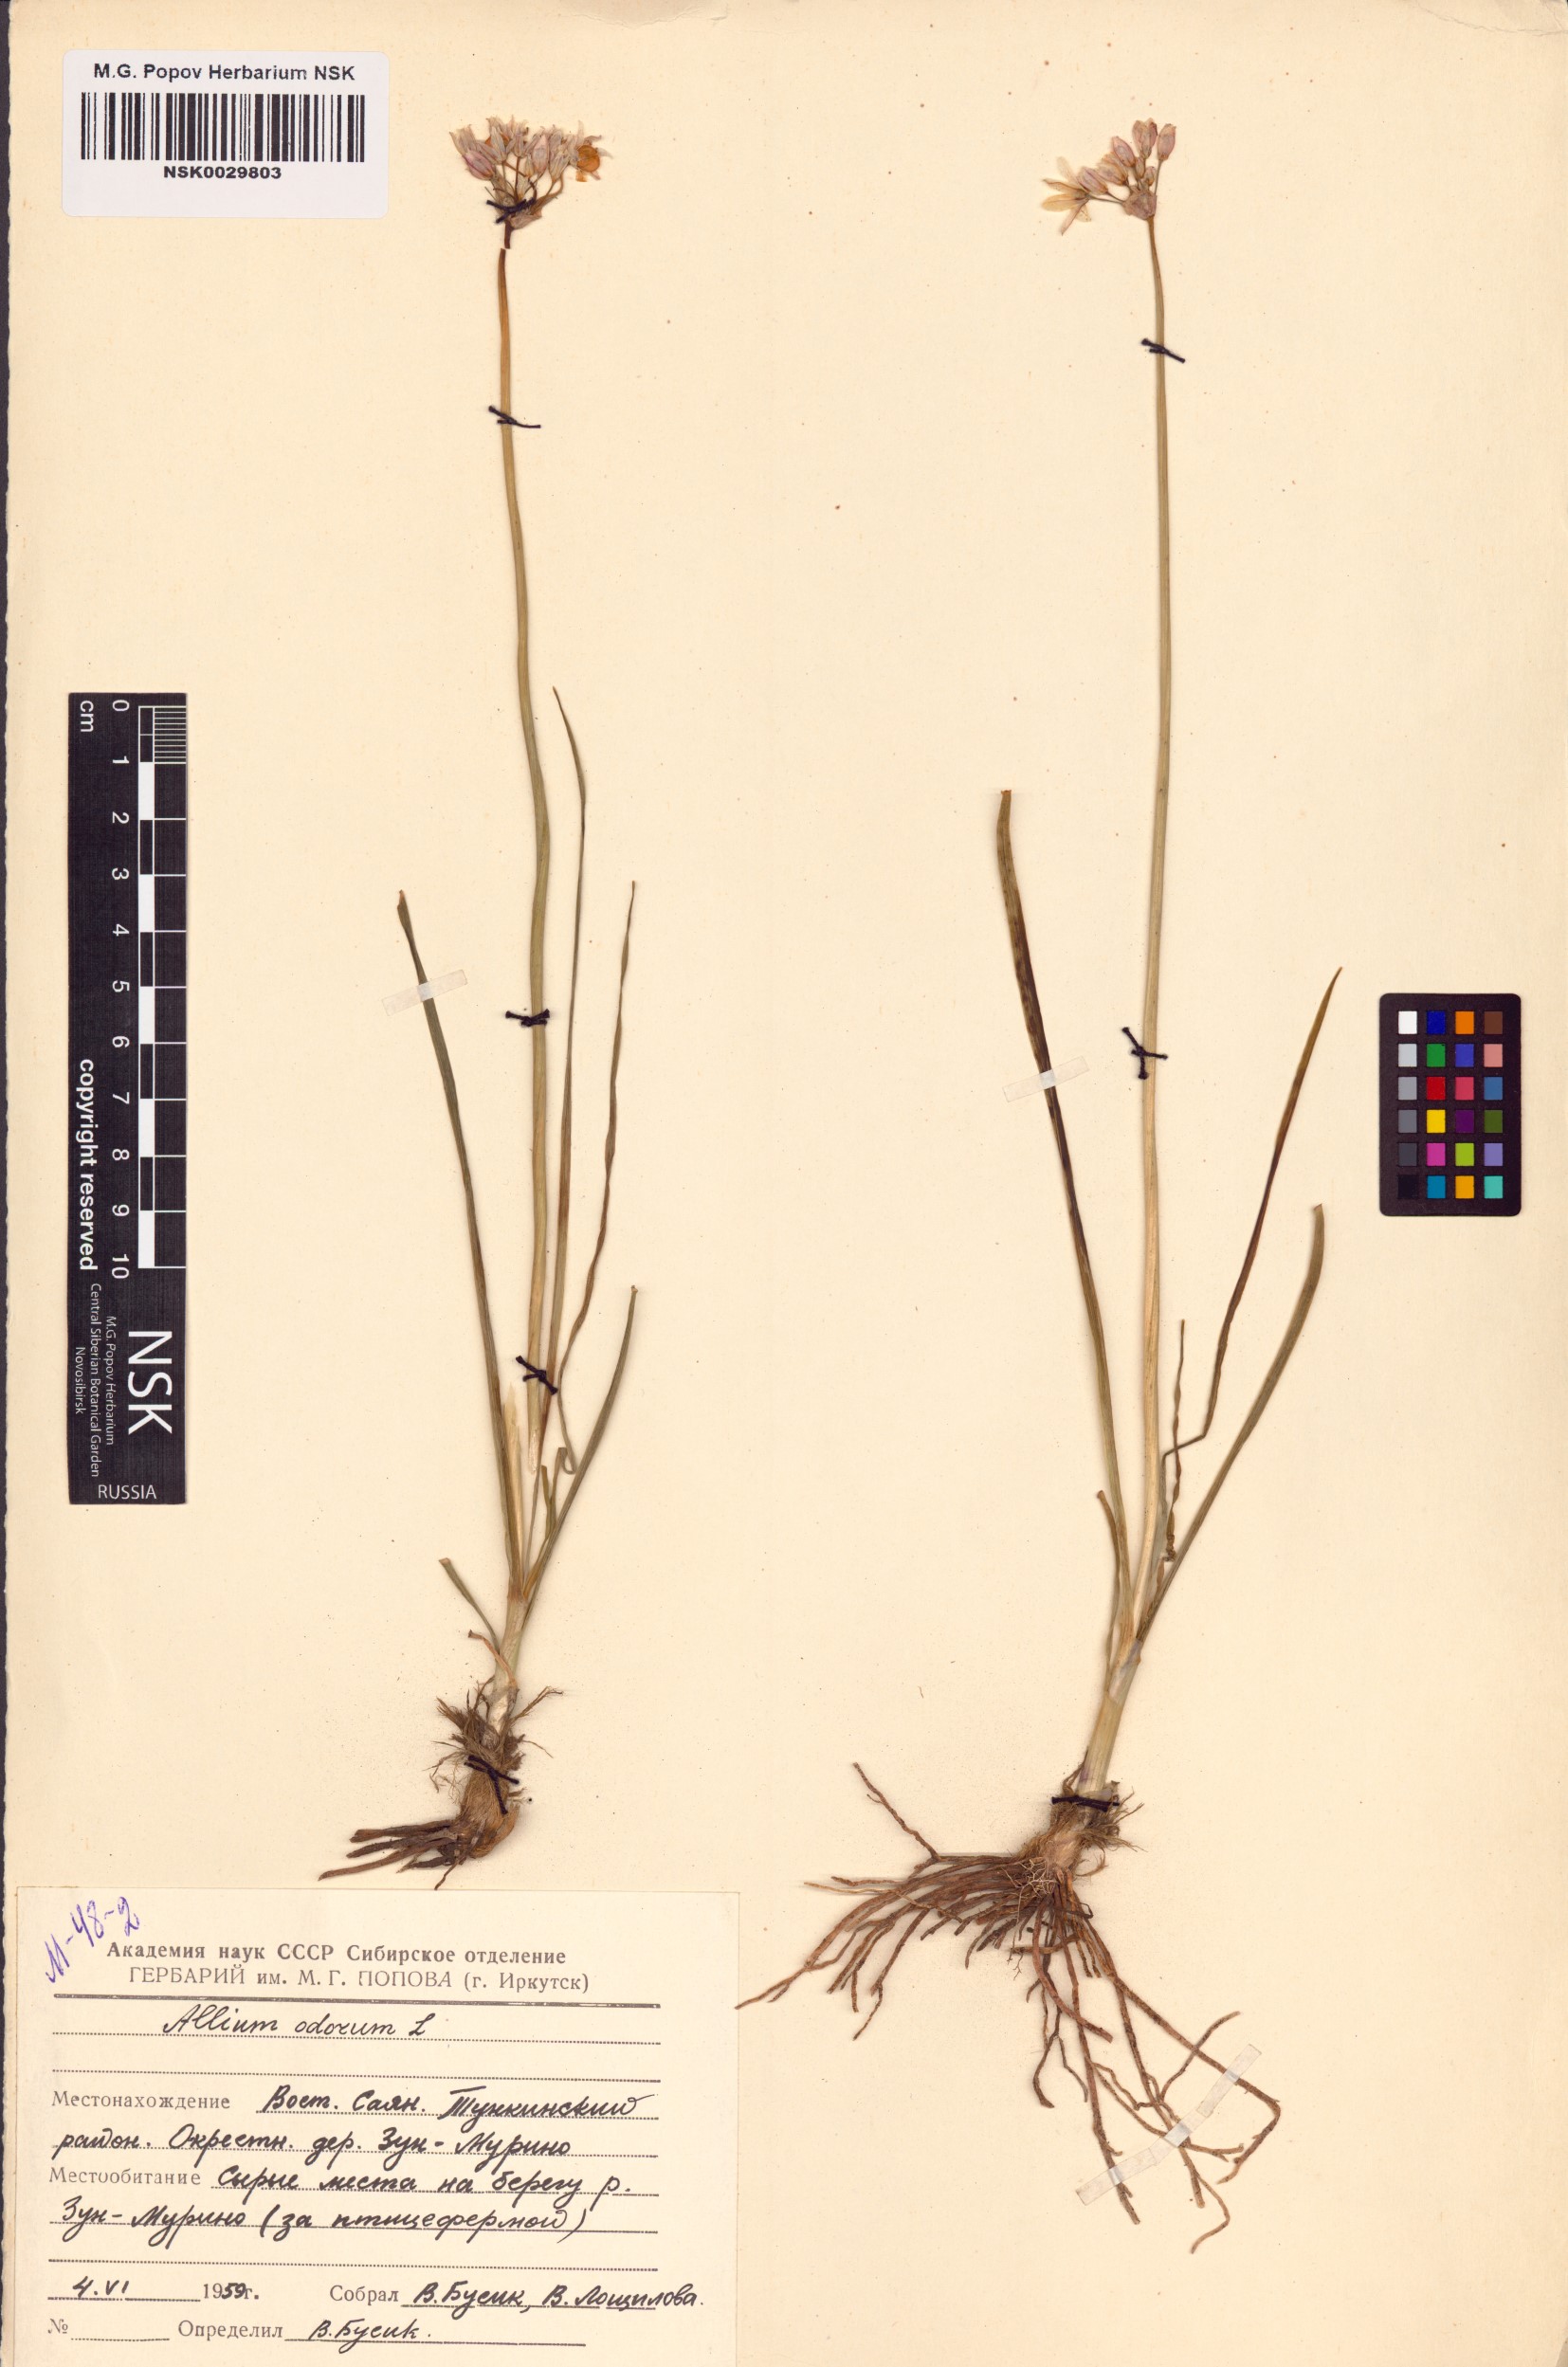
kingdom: Plantae
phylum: Tracheophyta
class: Liliopsida
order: Asparagales
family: Amaryllidaceae
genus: Allium
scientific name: Allium ramosum
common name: Fragrant garlic
